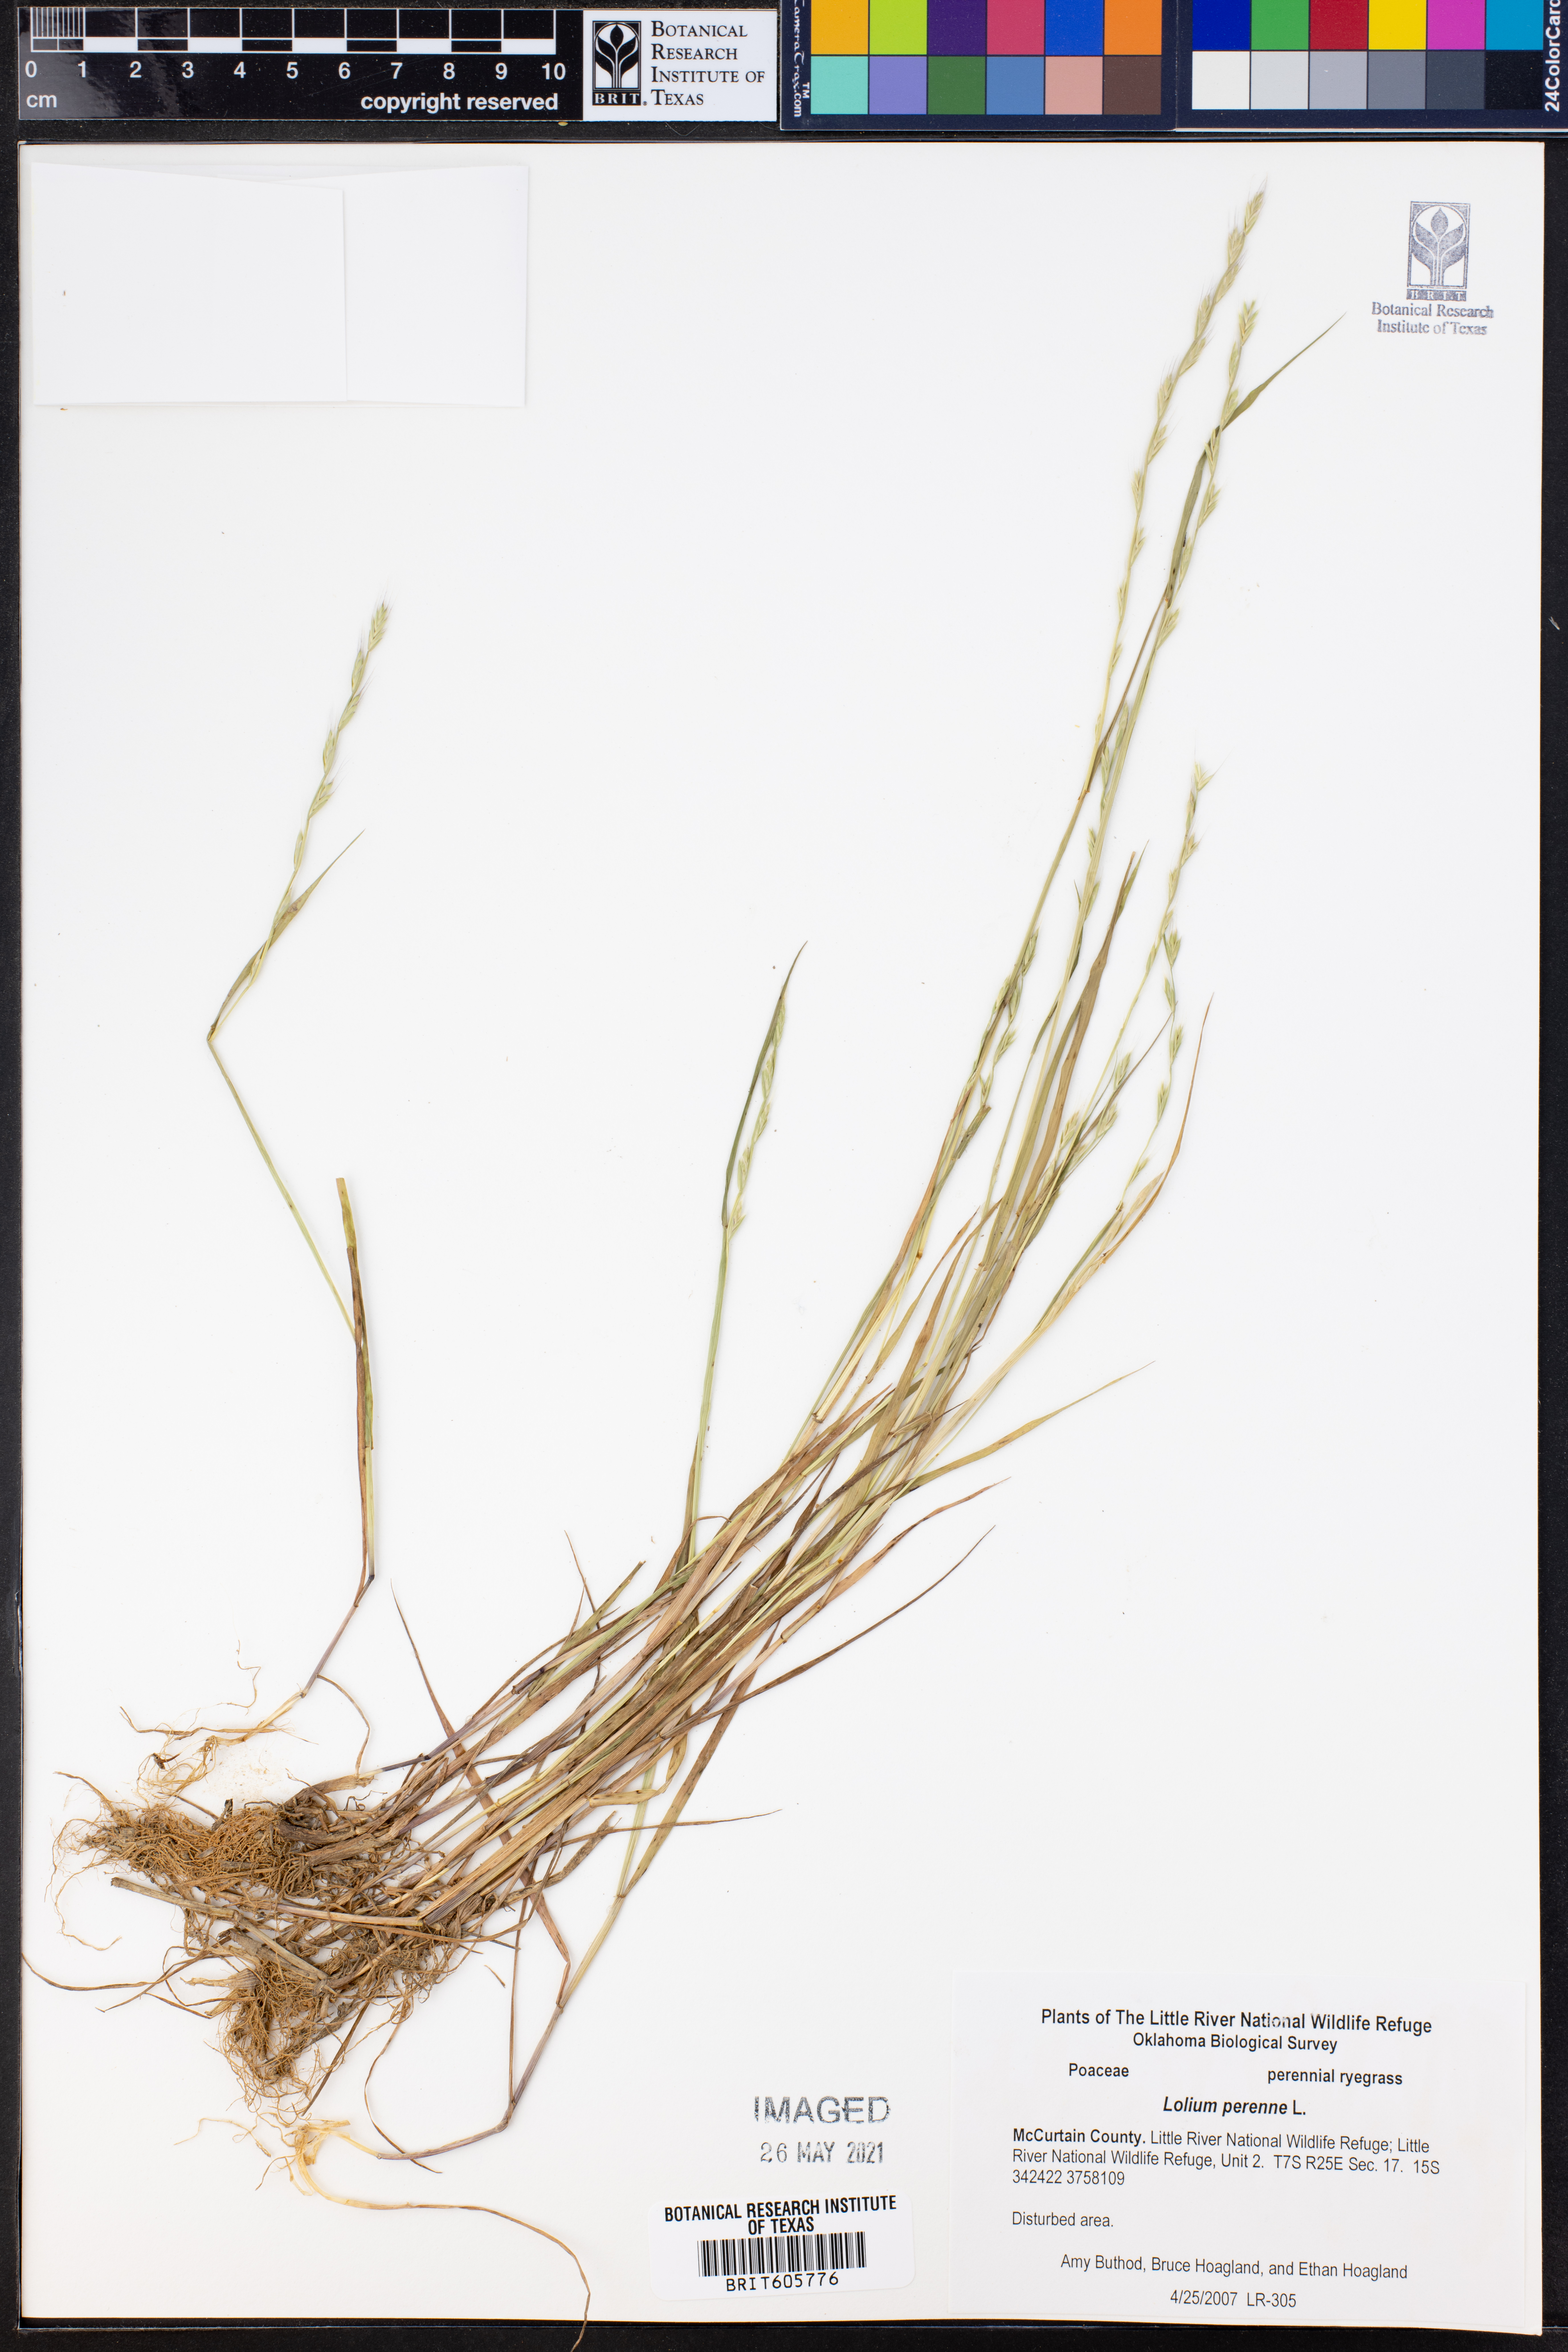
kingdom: Plantae
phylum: Tracheophyta
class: Liliopsida
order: Poales
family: Poaceae
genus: Lolium
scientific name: Lolium perenne
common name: Perennial ryegrass
